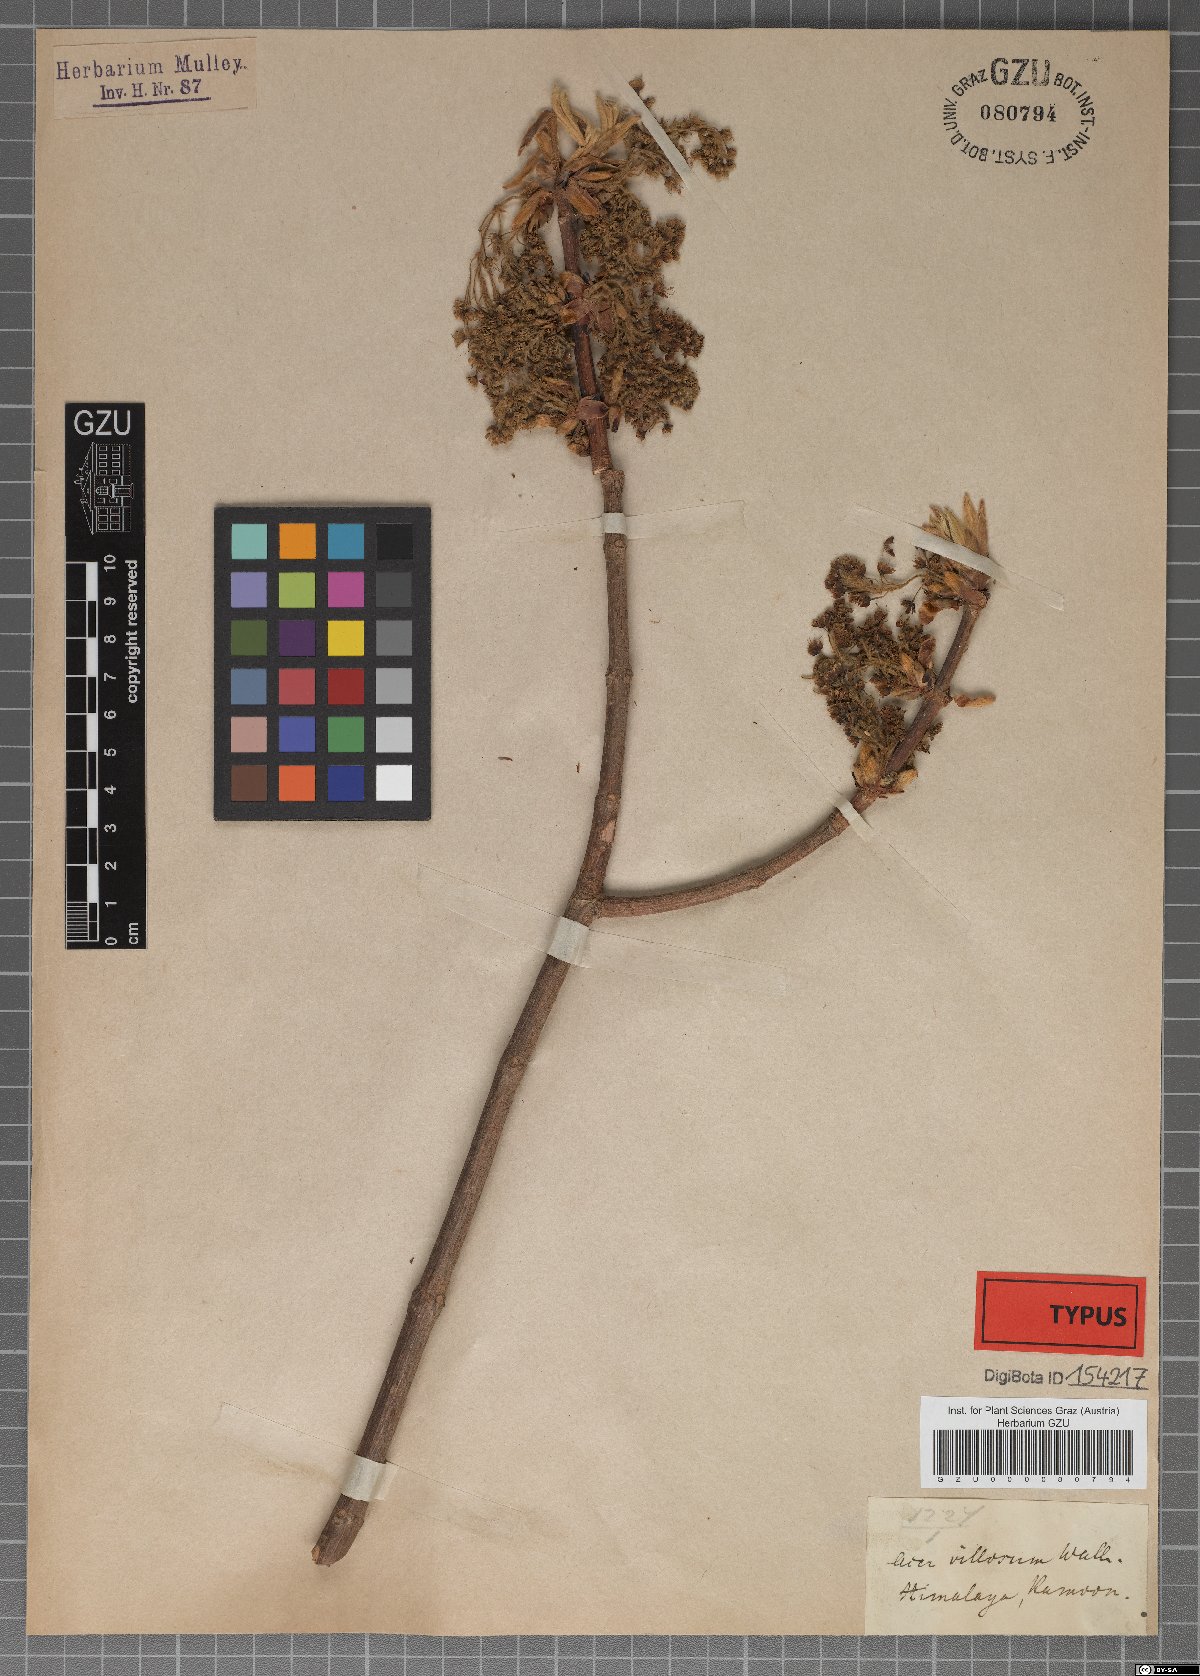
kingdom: Plantae
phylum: Tracheophyta
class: Magnoliopsida
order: Sapindales
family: Sapindaceae
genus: Acer
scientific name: Acer sterculiaceum
